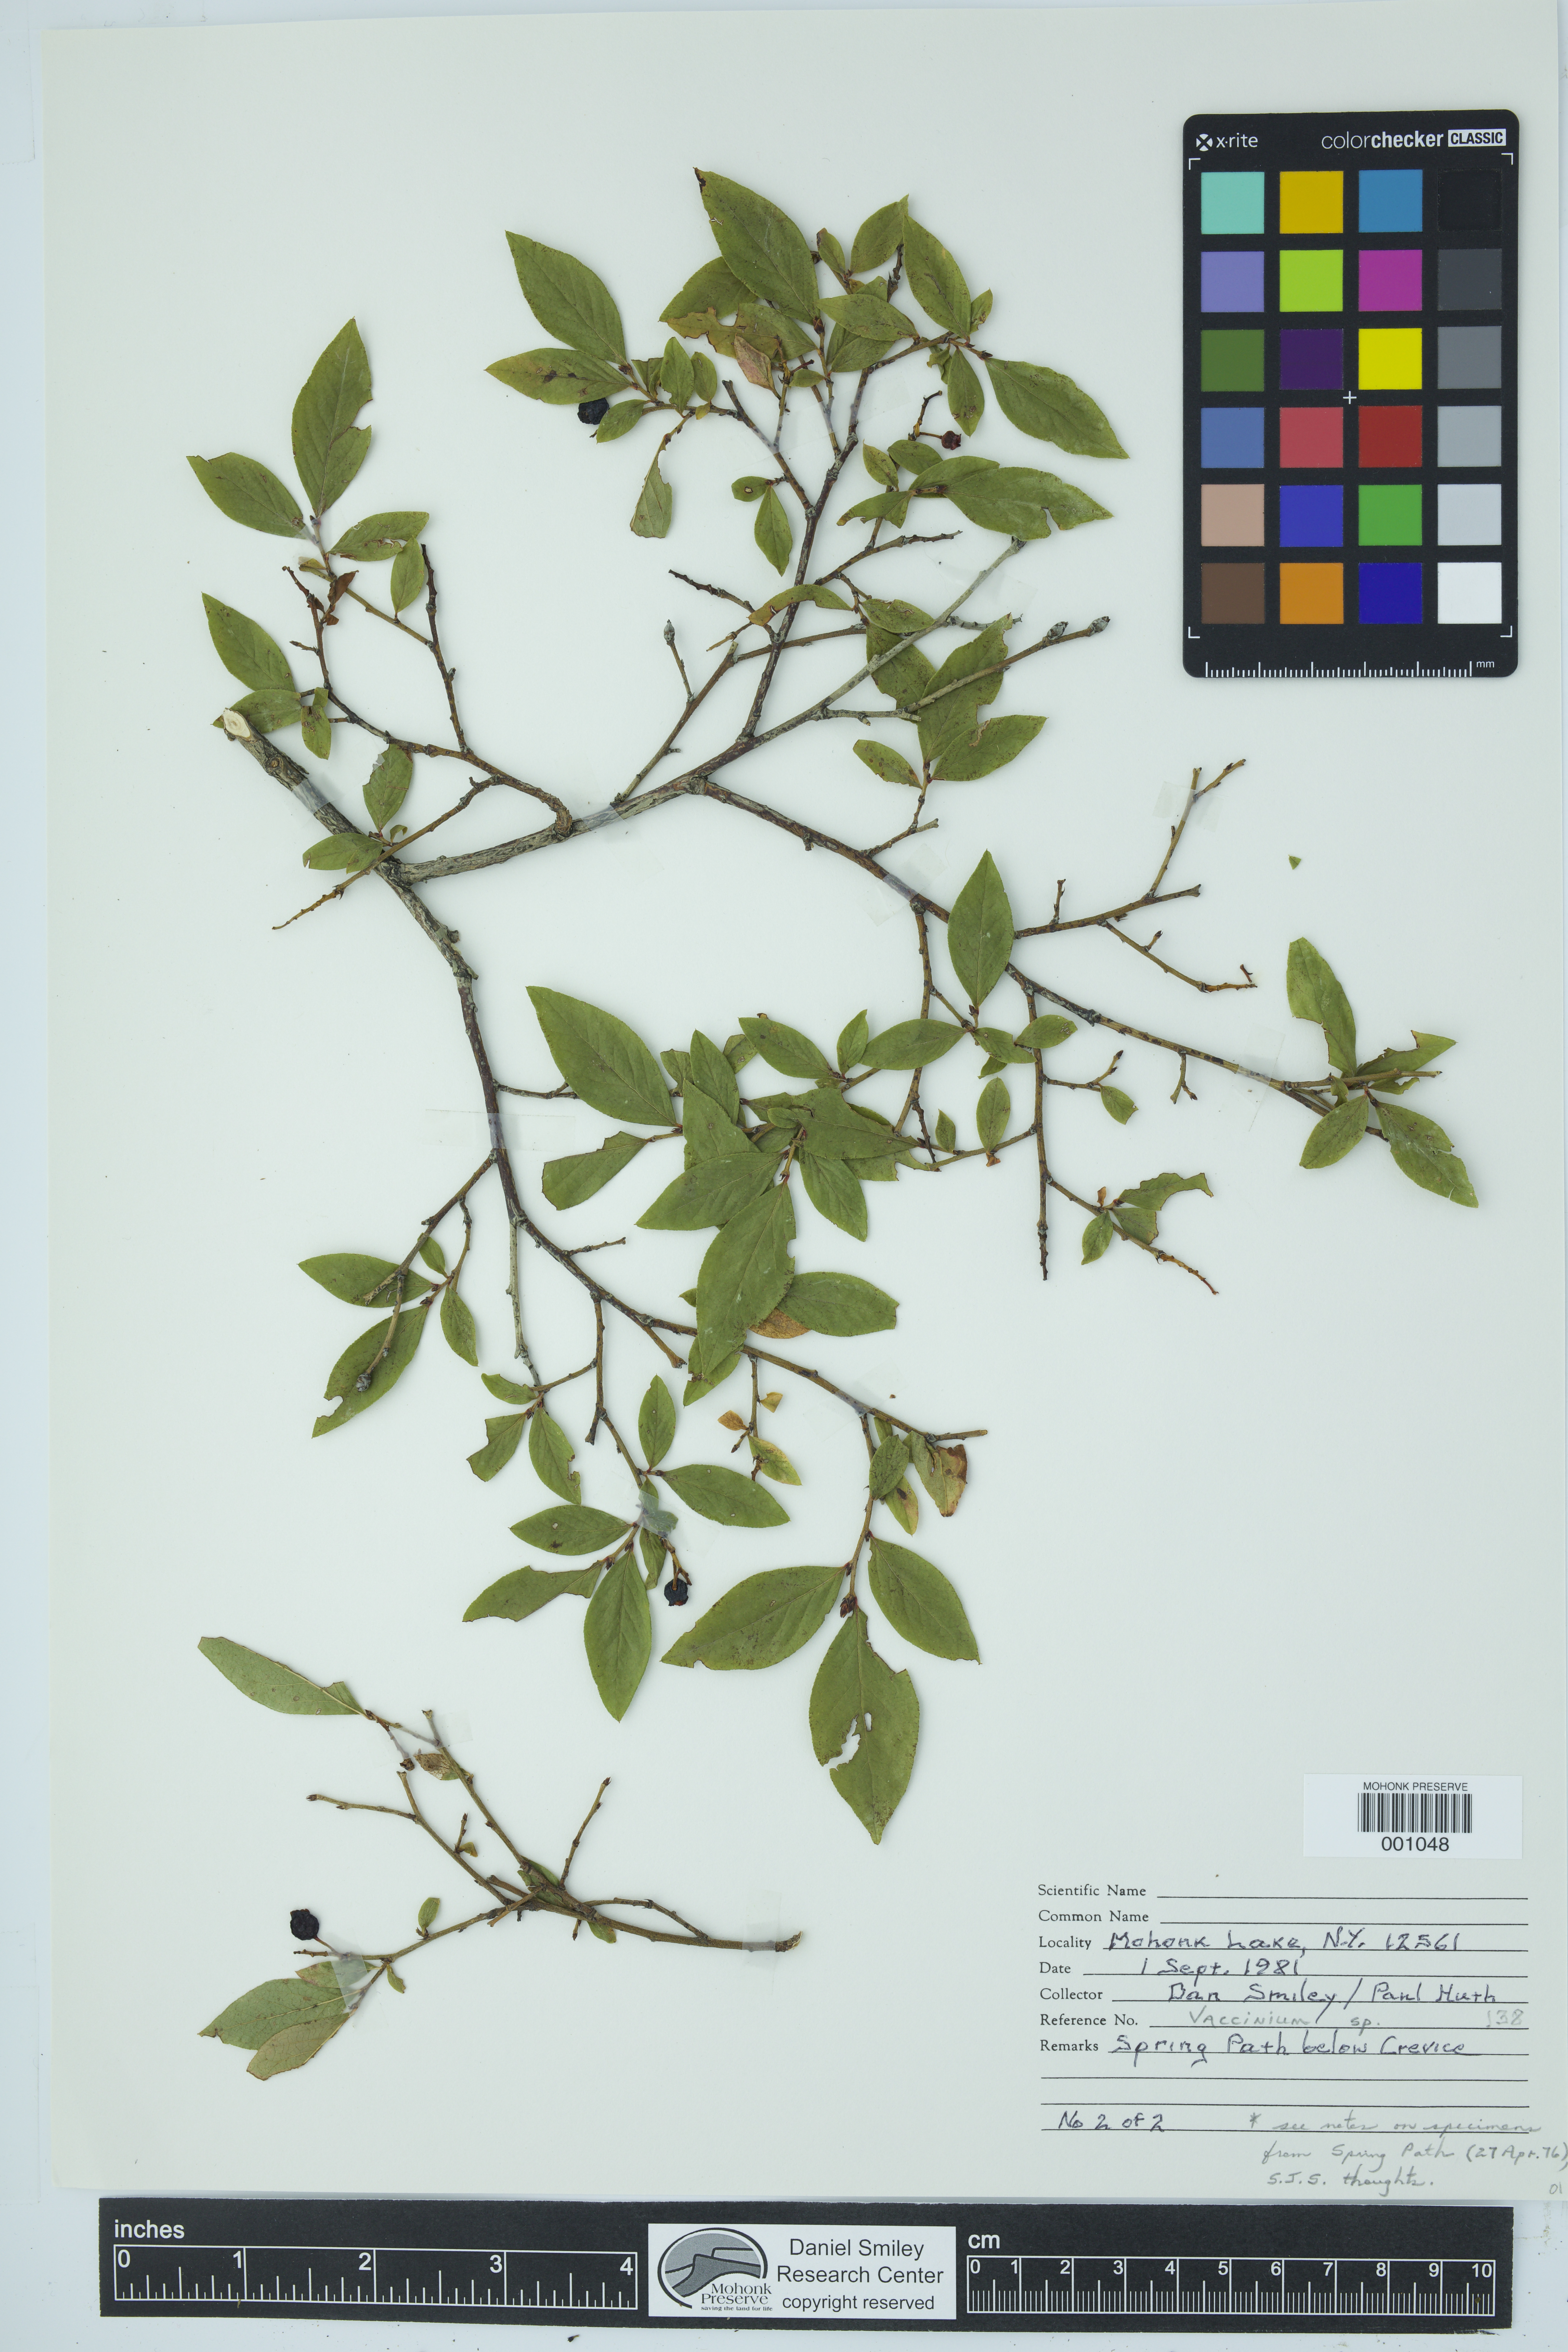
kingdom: Plantae
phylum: Tracheophyta
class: Magnoliopsida
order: Ericales
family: Ericaceae
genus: Vaccinium
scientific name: Vaccinium
